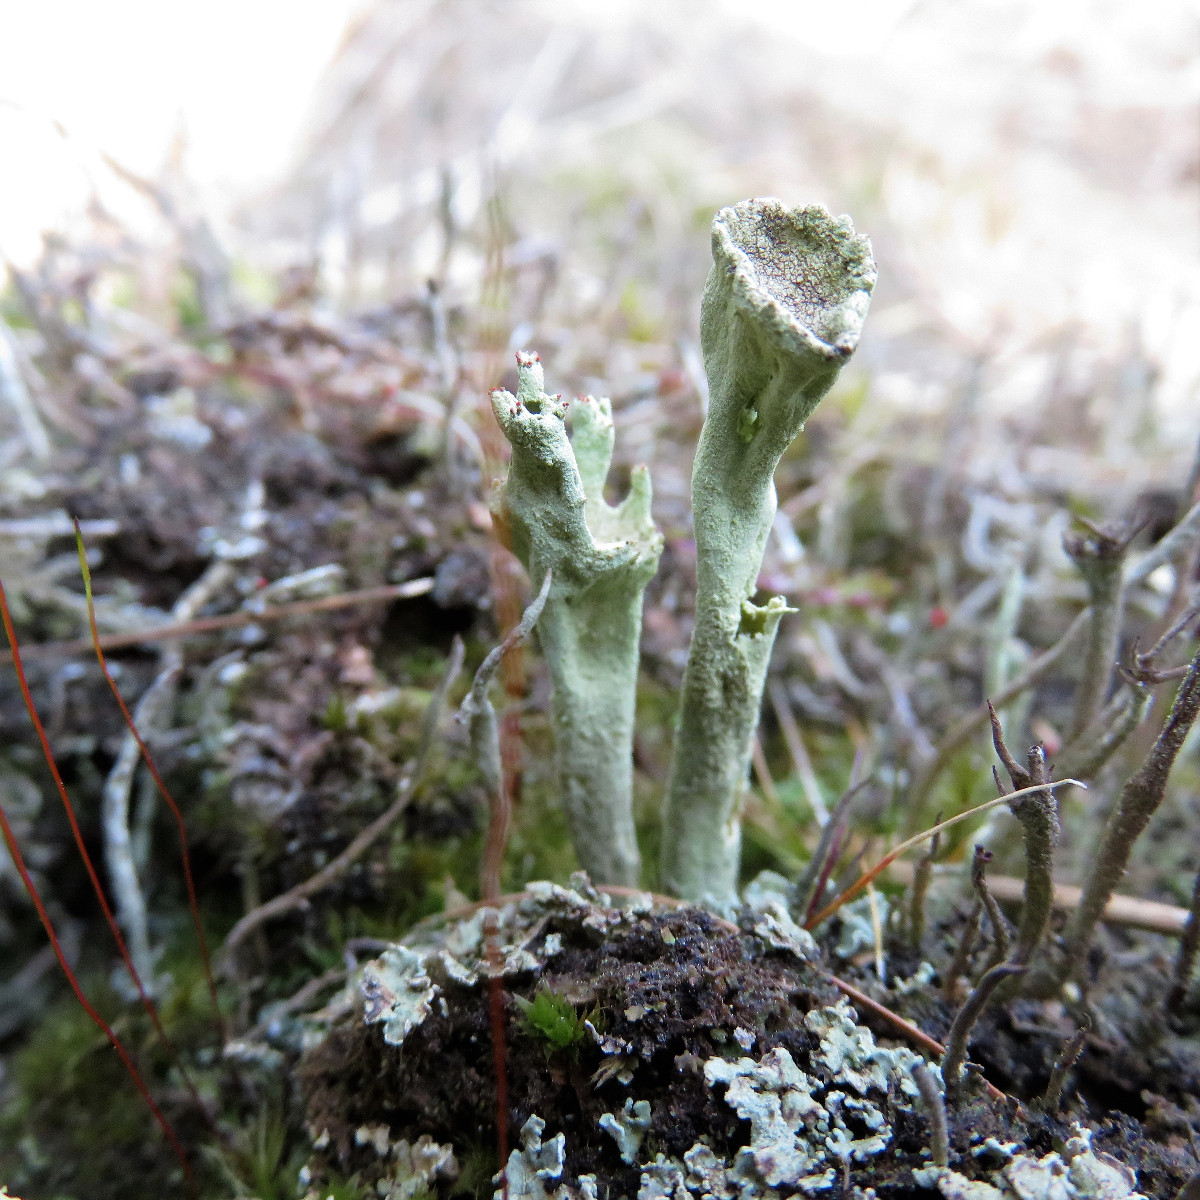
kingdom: Fungi
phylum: Ascomycota
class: Lecanoromycetes
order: Lecanorales
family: Cladoniaceae
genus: Cladonia
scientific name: Cladonia sulphurina
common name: opblæst bægerlav
